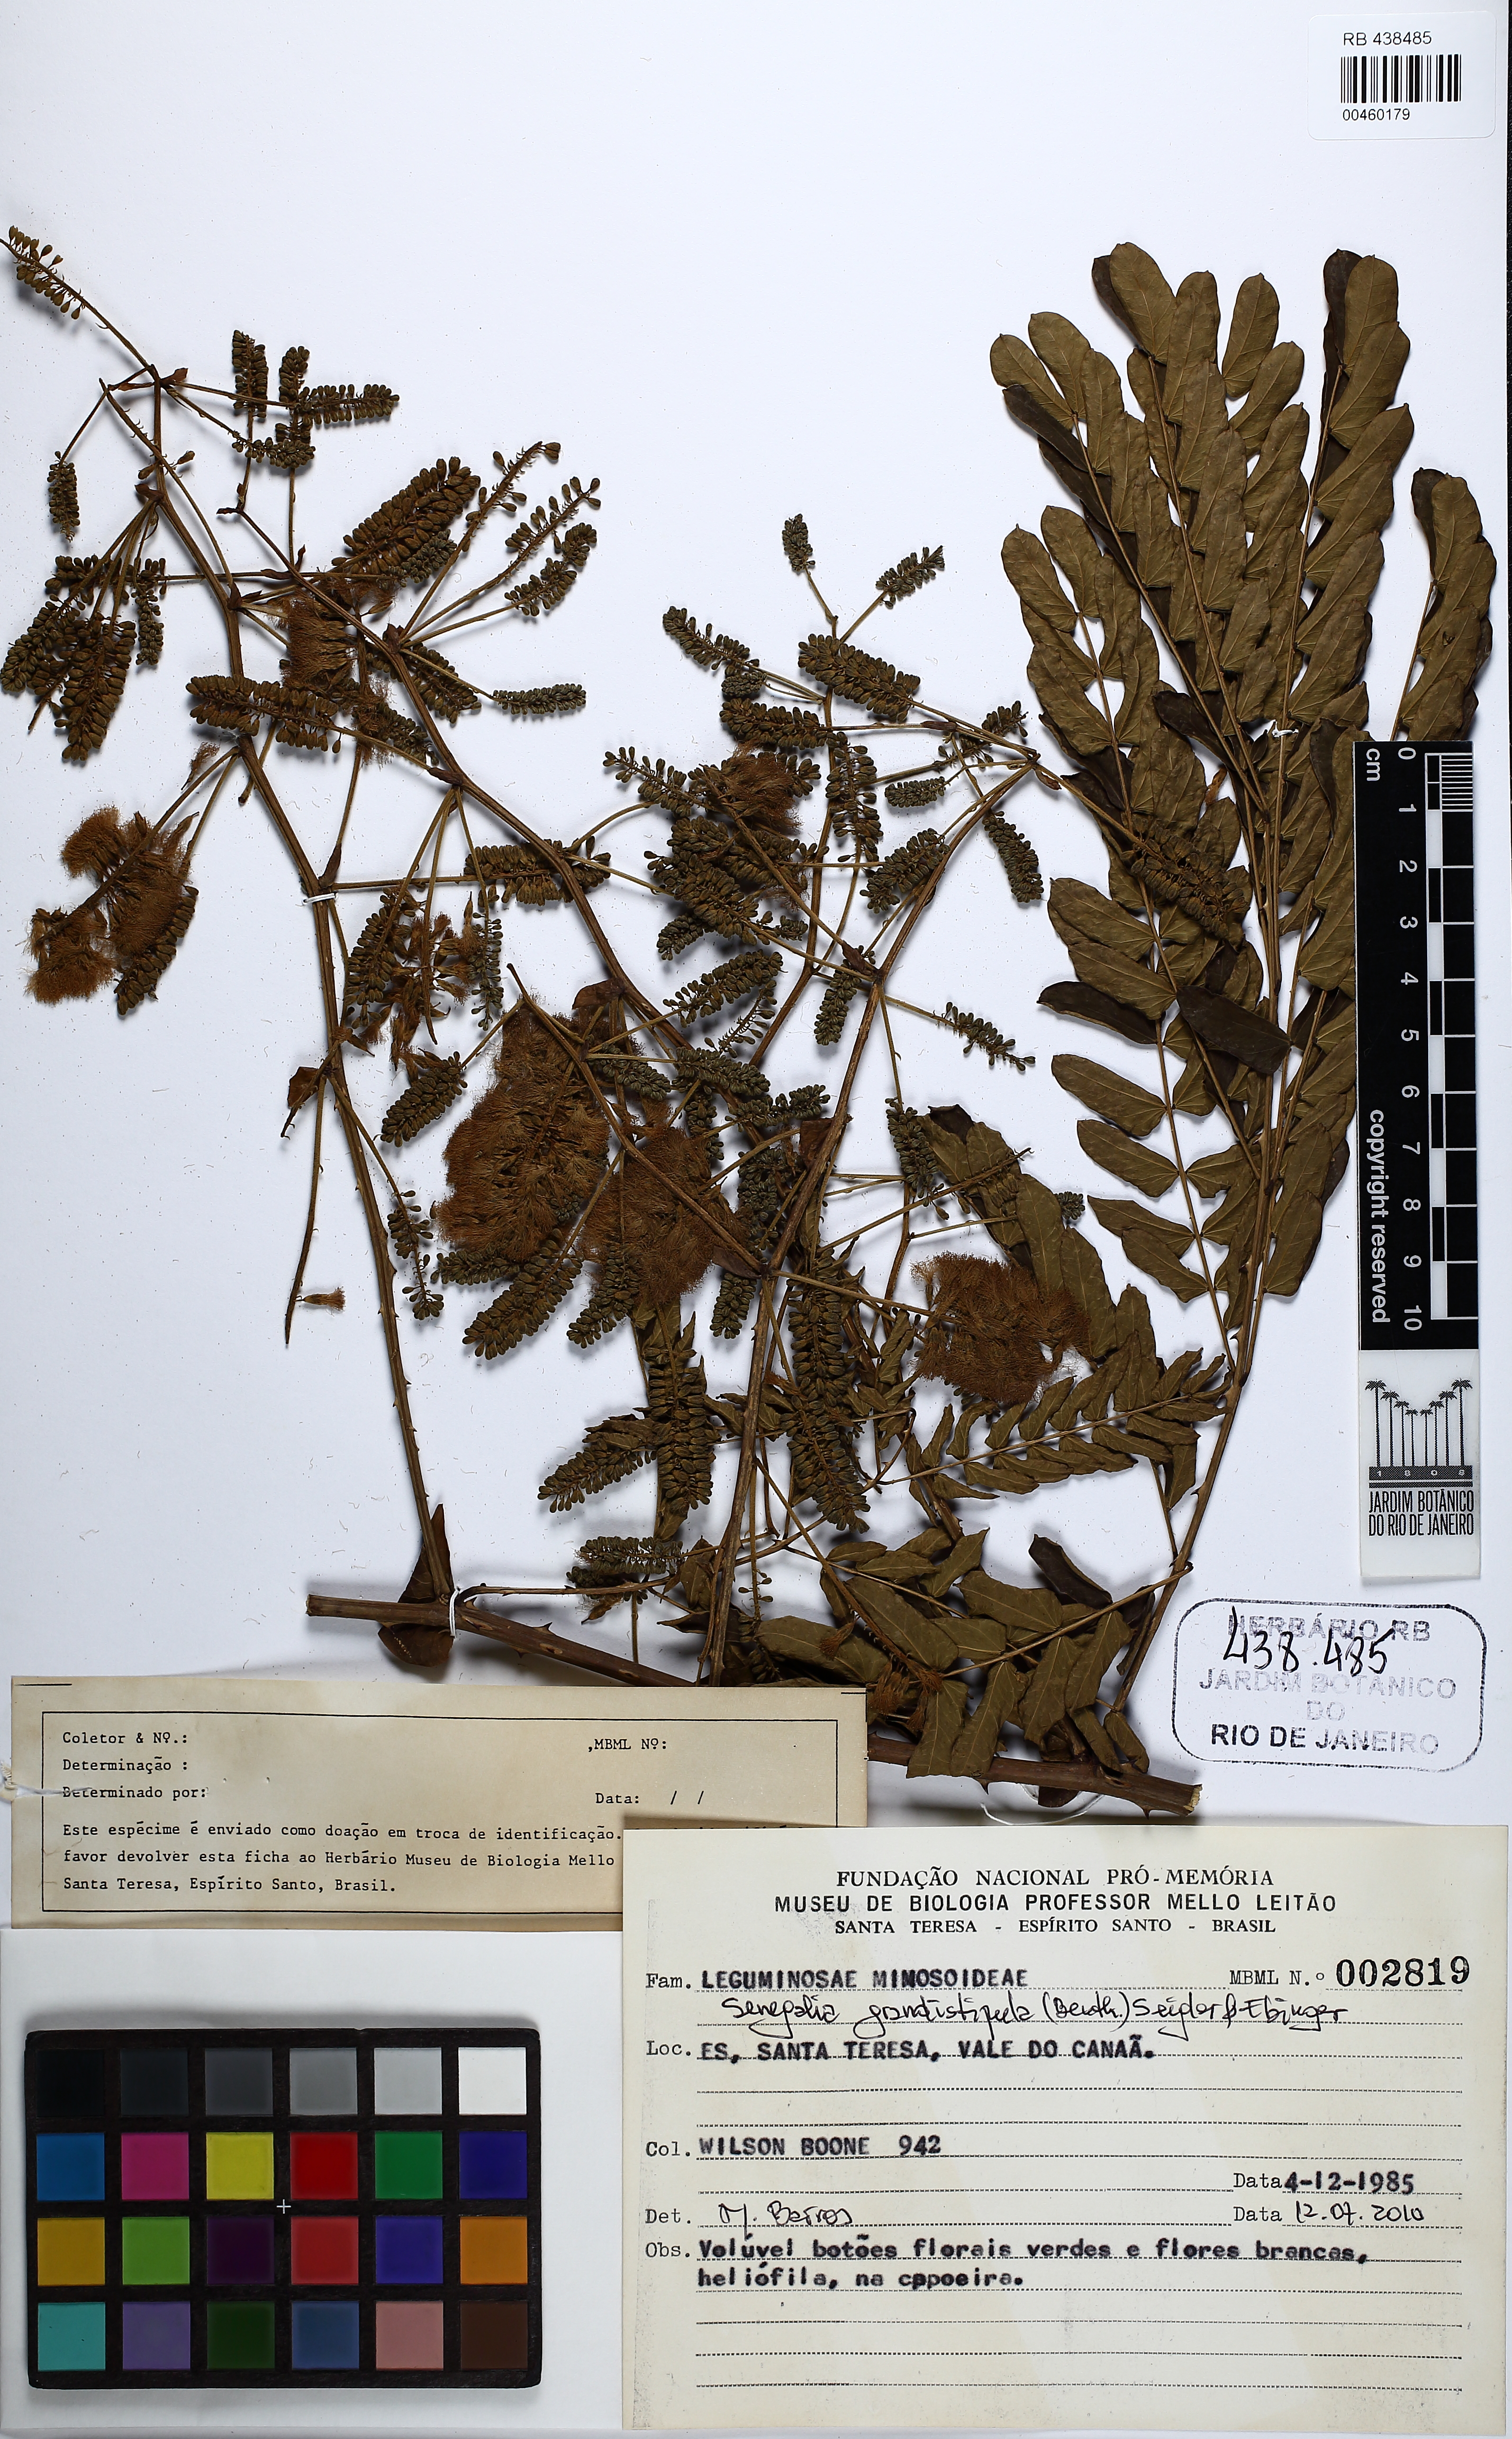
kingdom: Plantae
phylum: Tracheophyta
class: Magnoliopsida
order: Fabales
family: Fabaceae
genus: Senegalia
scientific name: Senegalia grandistipula
